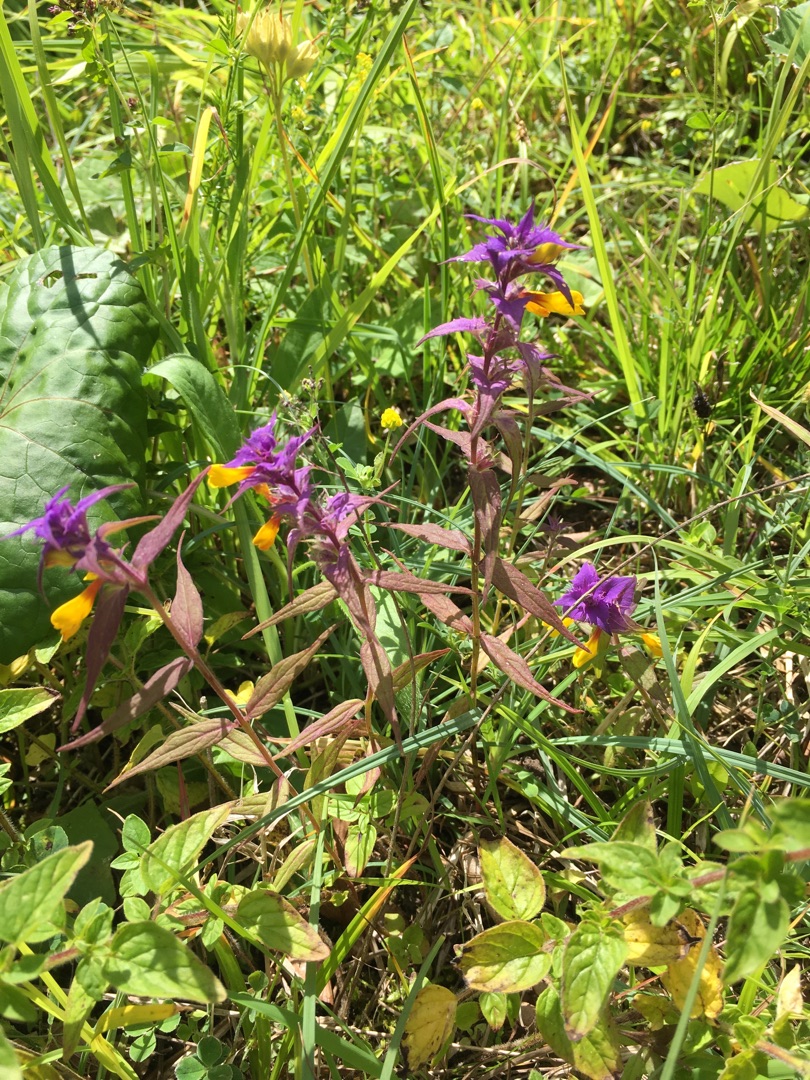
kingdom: Plantae
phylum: Tracheophyta
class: Magnoliopsida
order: Lamiales
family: Orobanchaceae
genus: Melampyrum
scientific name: Melampyrum nemorosum
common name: Blåtoppet kohvede
